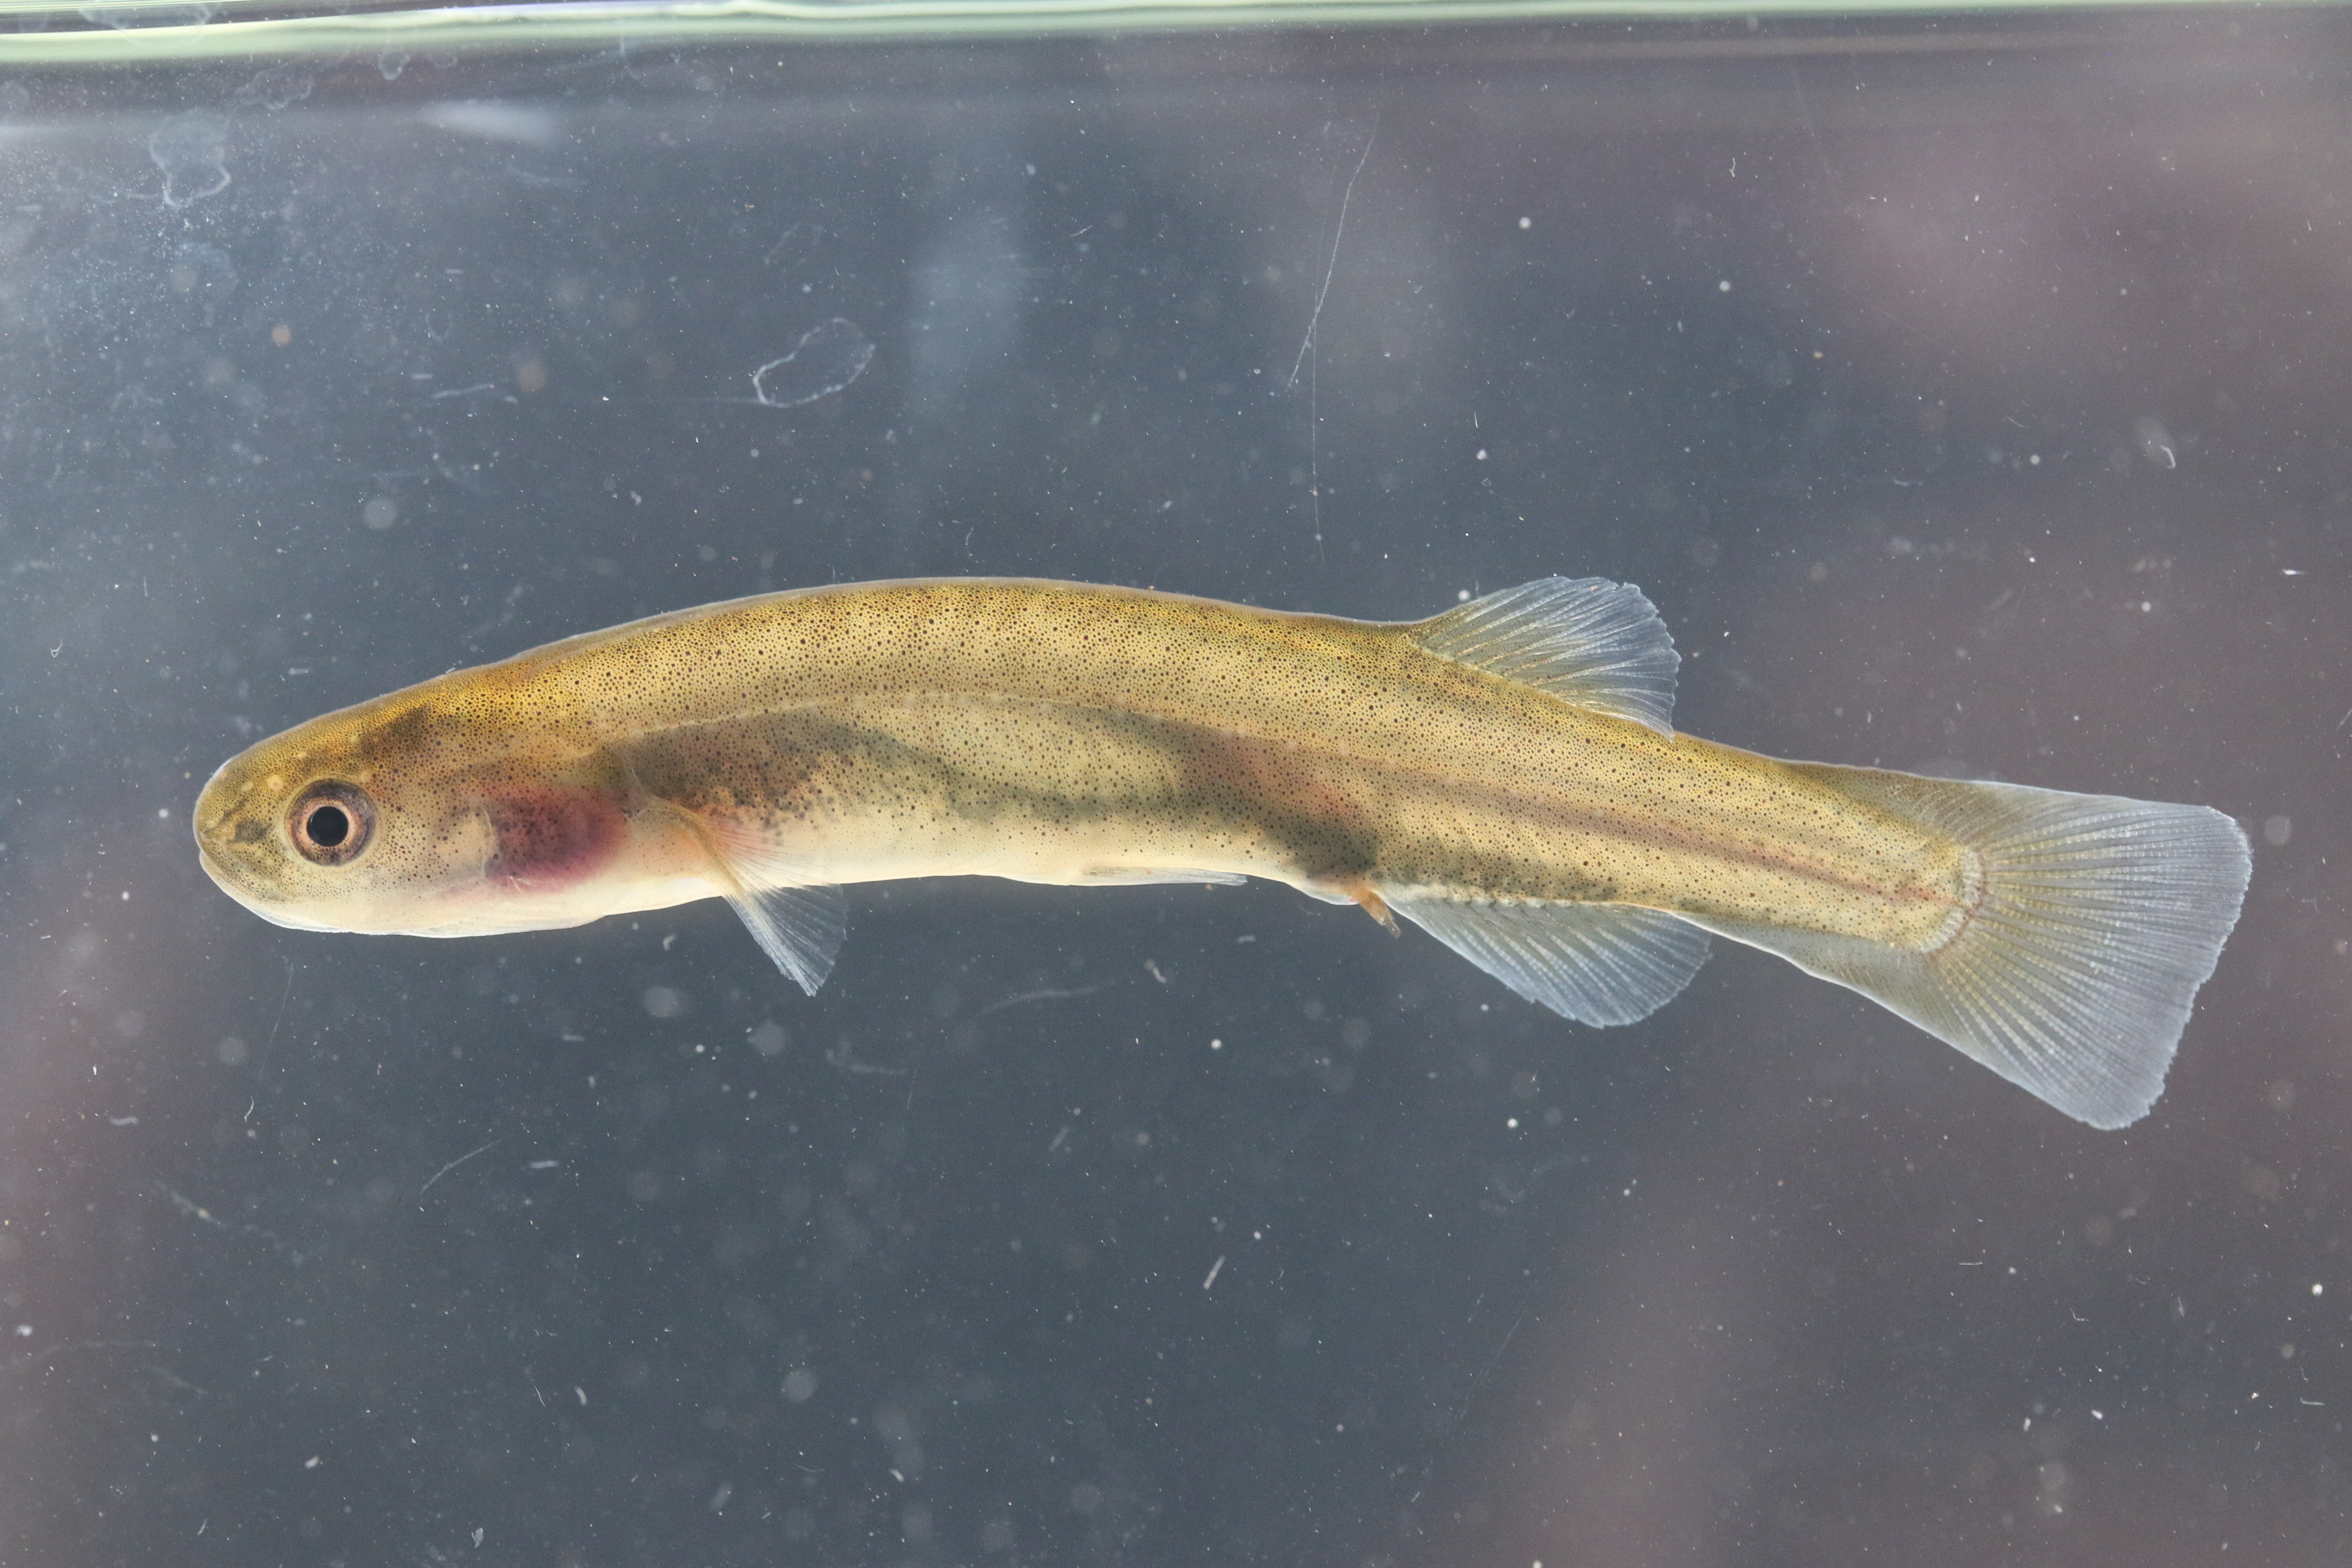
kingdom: Animalia
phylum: Chordata
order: Osmeriformes
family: Galaxiidae
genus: Galaxias
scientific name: Galaxias
